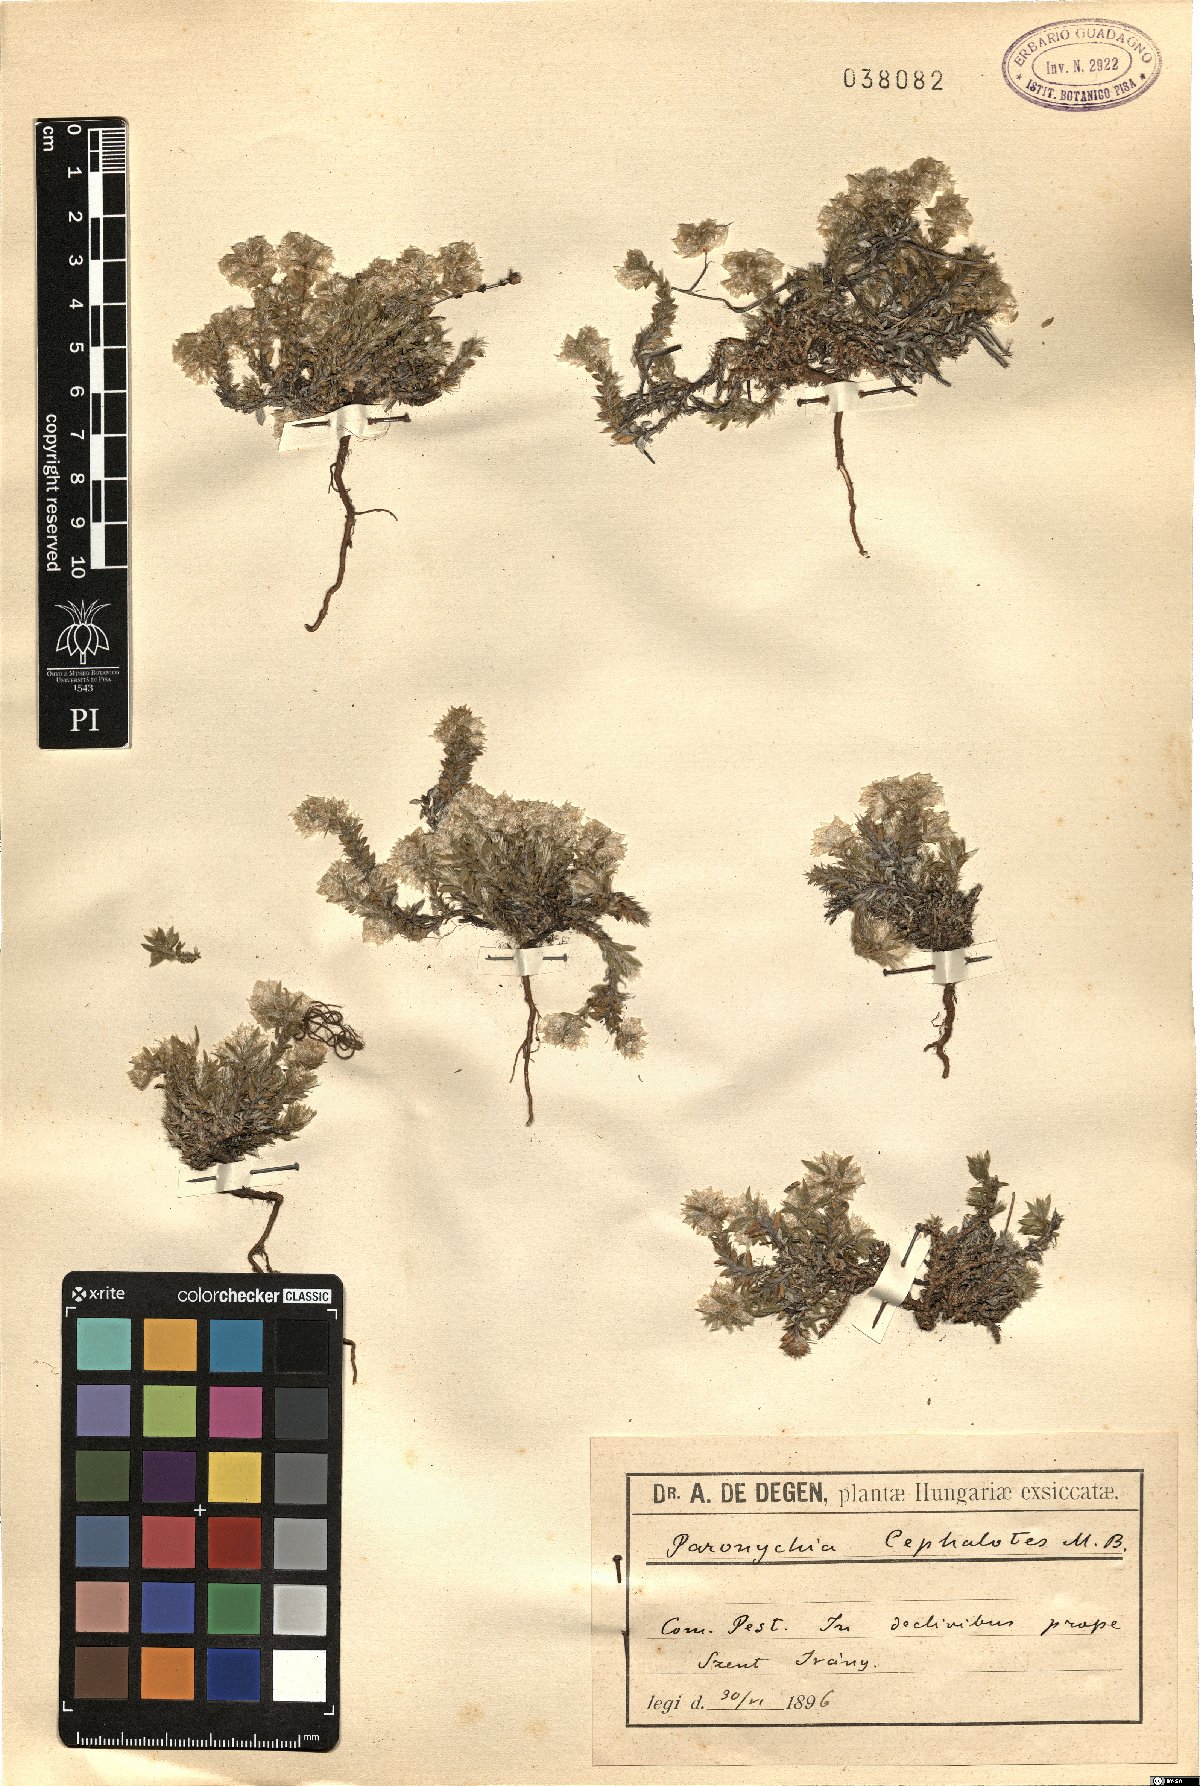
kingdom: Plantae
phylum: Tracheophyta
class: Magnoliopsida
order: Caryophyllales
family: Caryophyllaceae
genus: Paronychia
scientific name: Paronychia cephalotes
